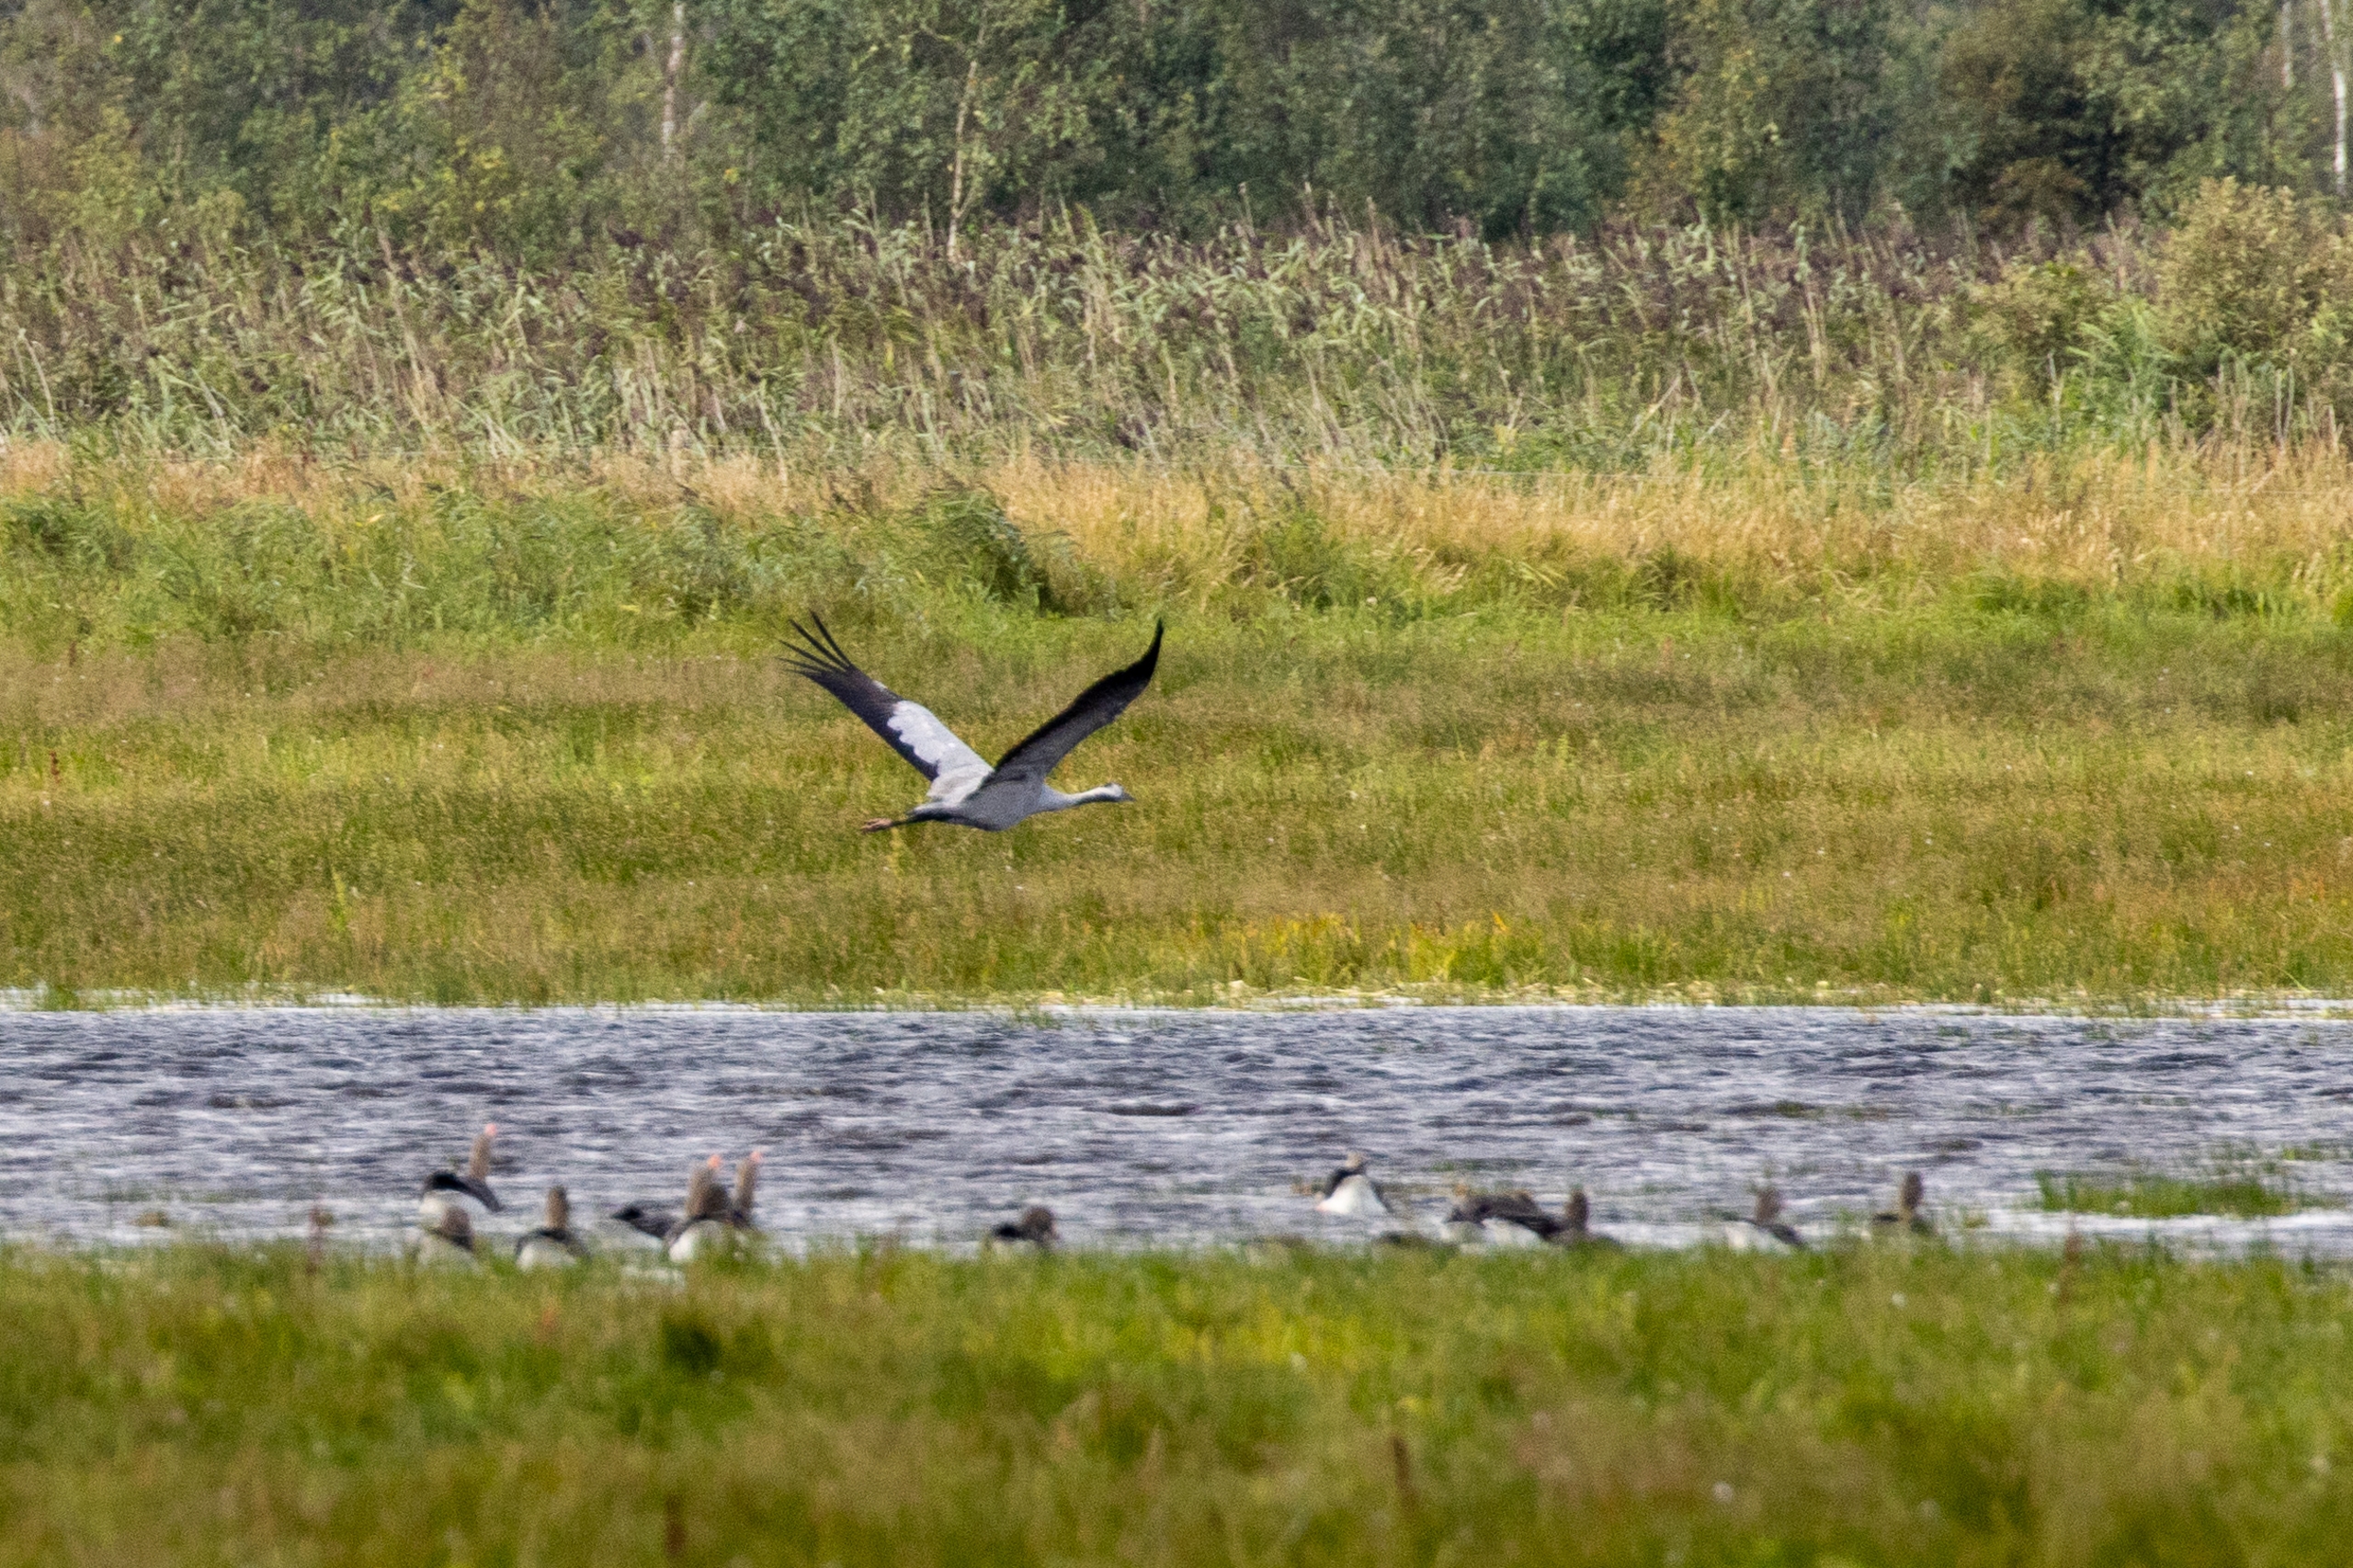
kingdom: Animalia
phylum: Chordata
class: Aves
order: Gruiformes
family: Gruidae
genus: Grus
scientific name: Grus grus
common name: Trane
